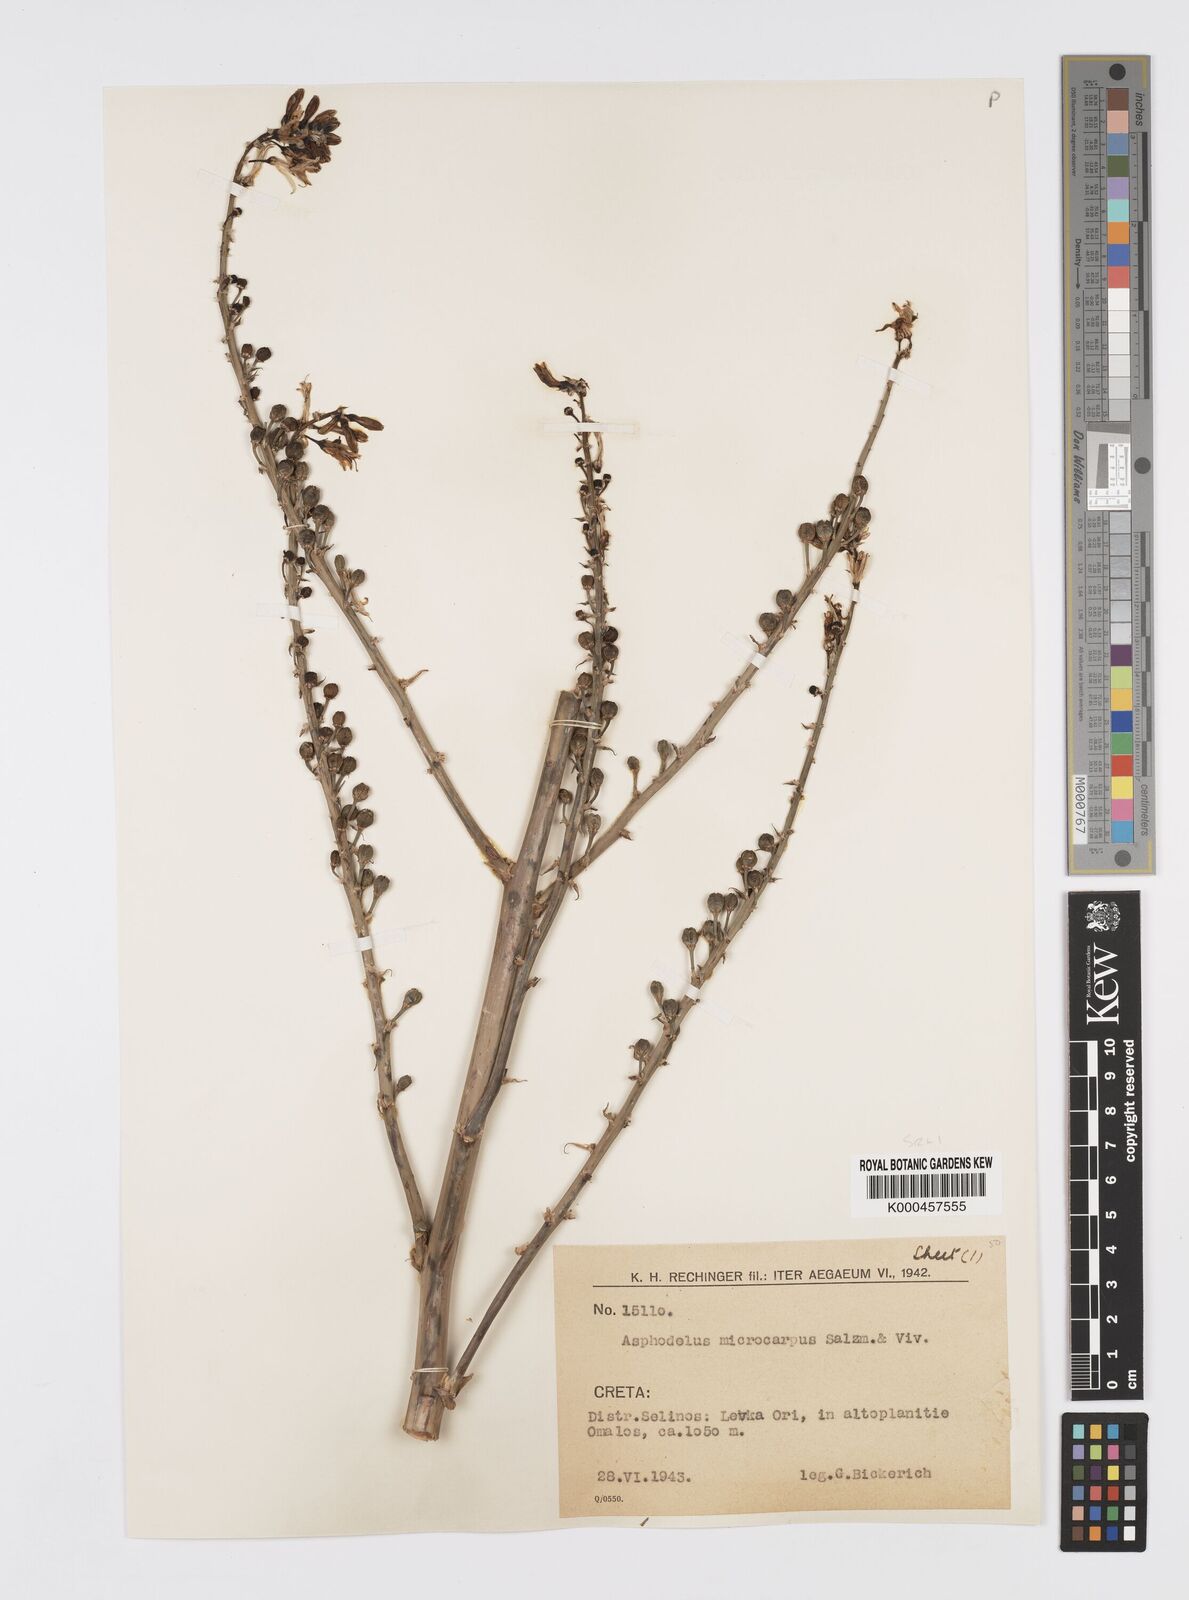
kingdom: Plantae
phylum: Tracheophyta
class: Liliopsida
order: Asparagales
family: Asphodelaceae
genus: Asphodelus
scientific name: Asphodelus aestivus
